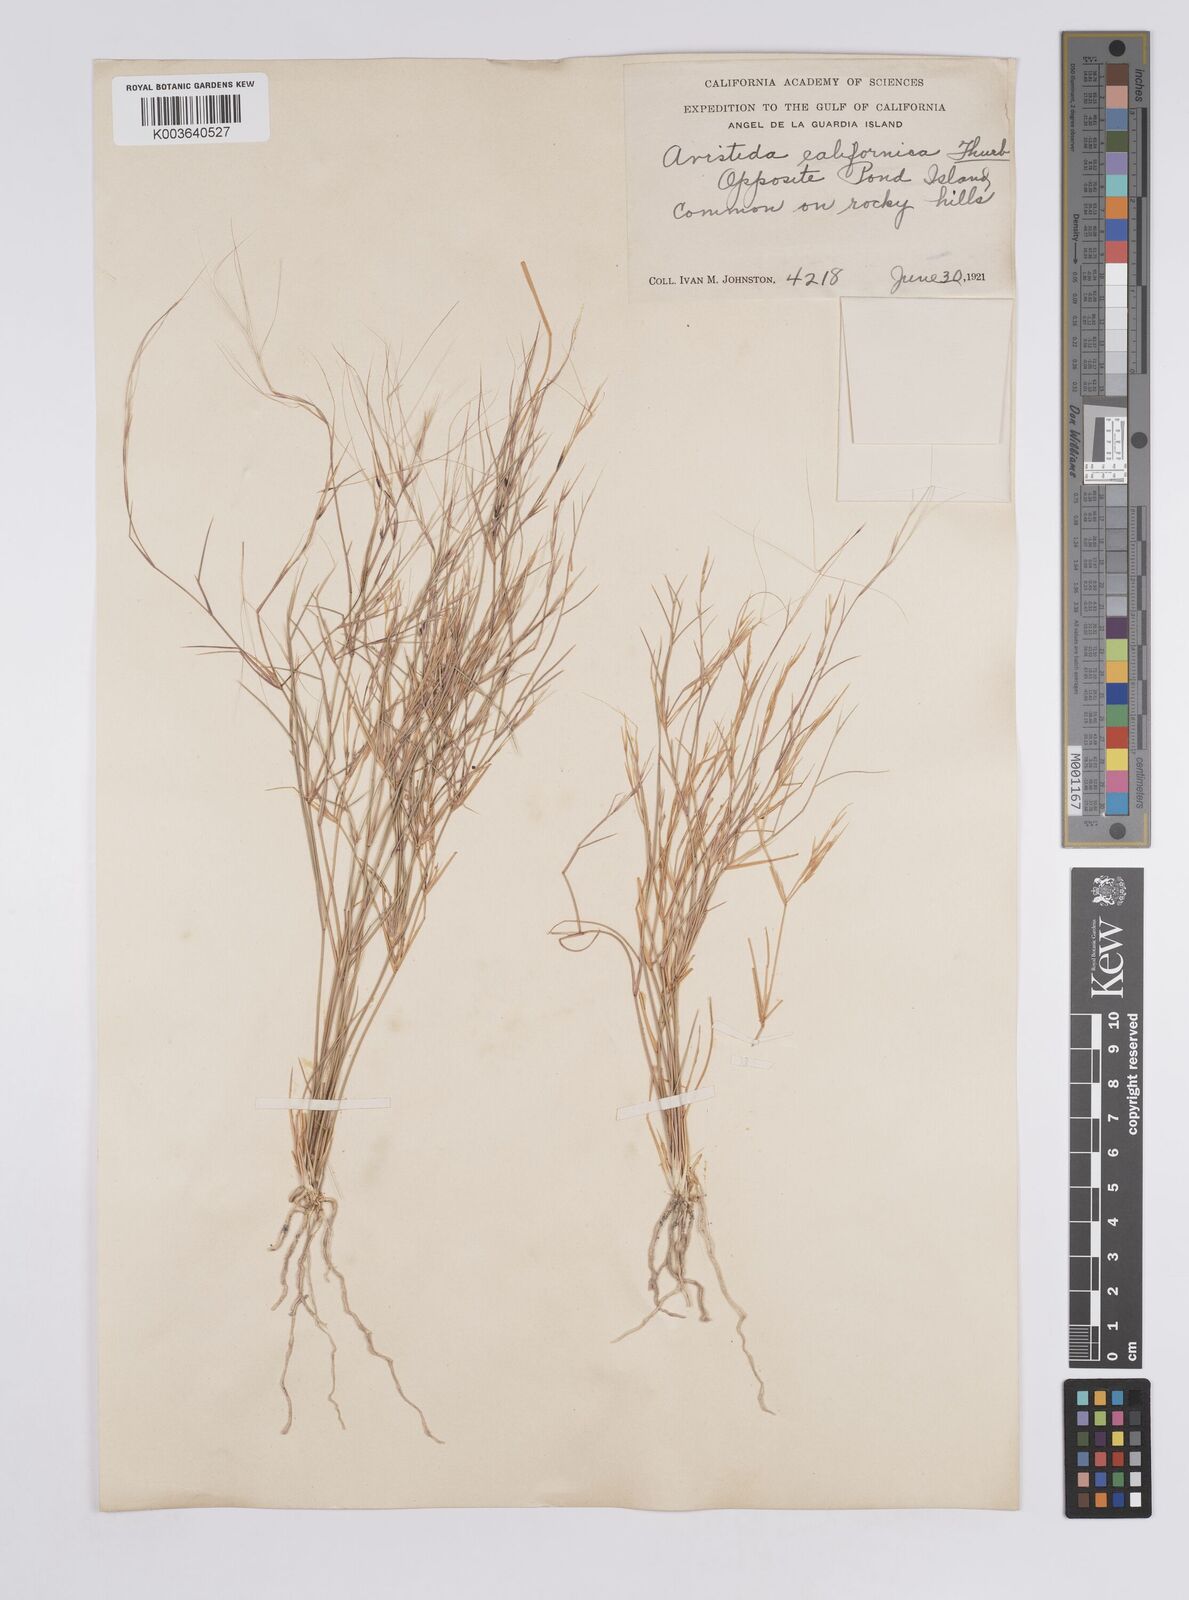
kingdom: Plantae
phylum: Tracheophyta
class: Liliopsida
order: Poales
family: Poaceae
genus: Aristida
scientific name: Aristida californica
